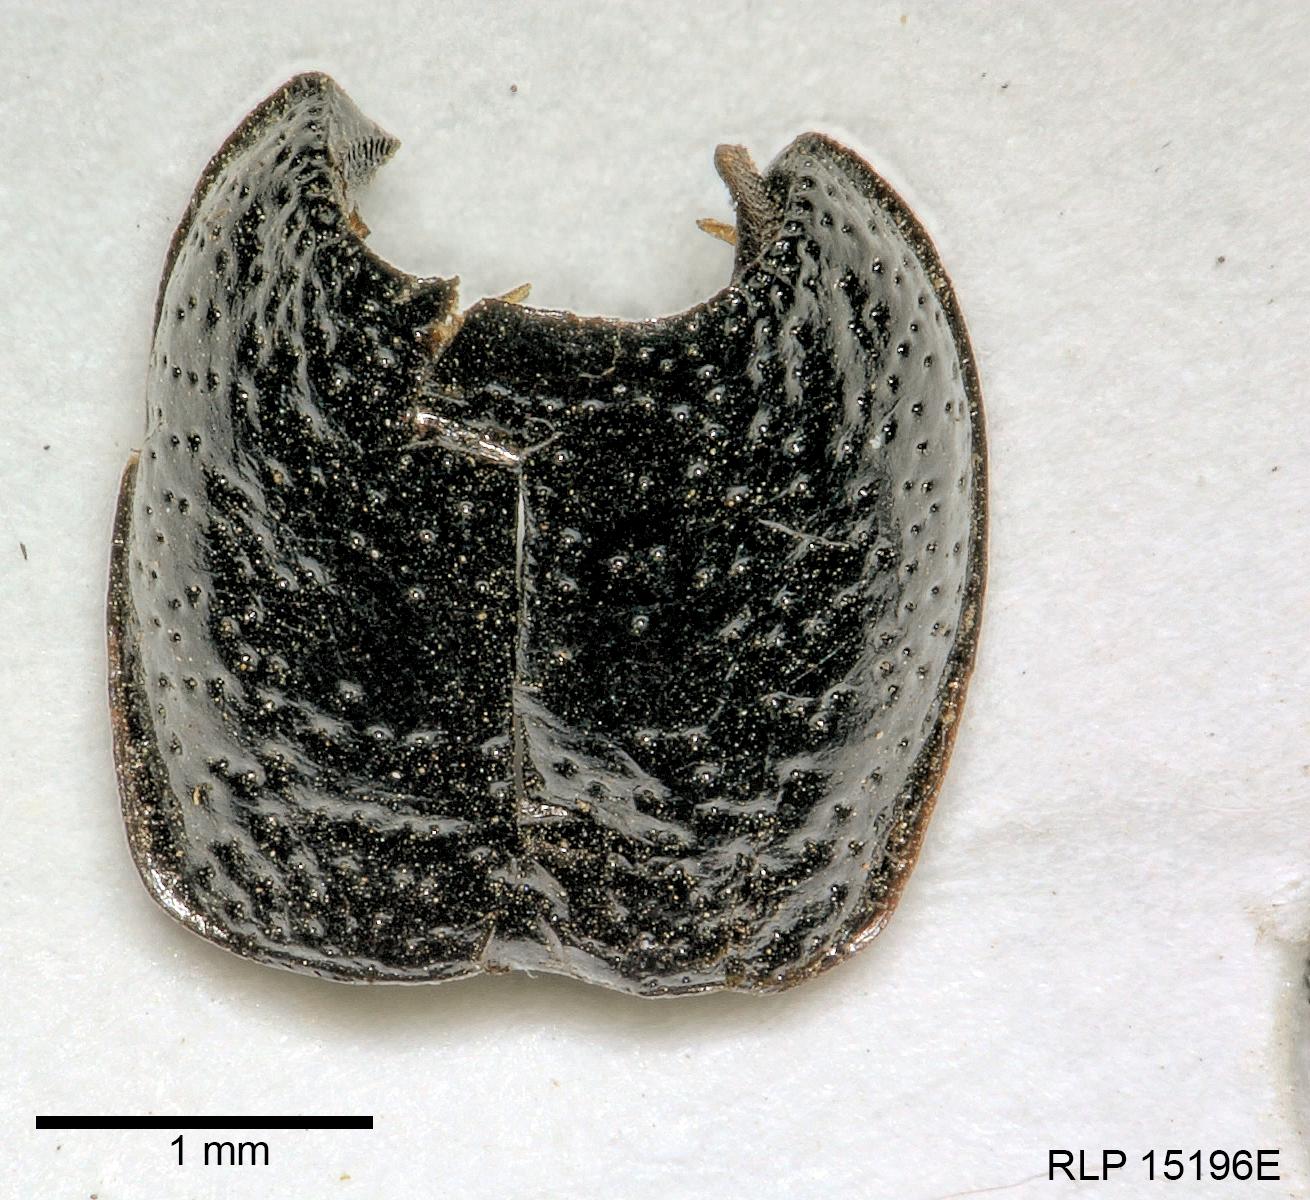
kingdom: Animalia
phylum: Arthropoda
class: Insecta
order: Coleoptera
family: Carabidae
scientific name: Carabidae
